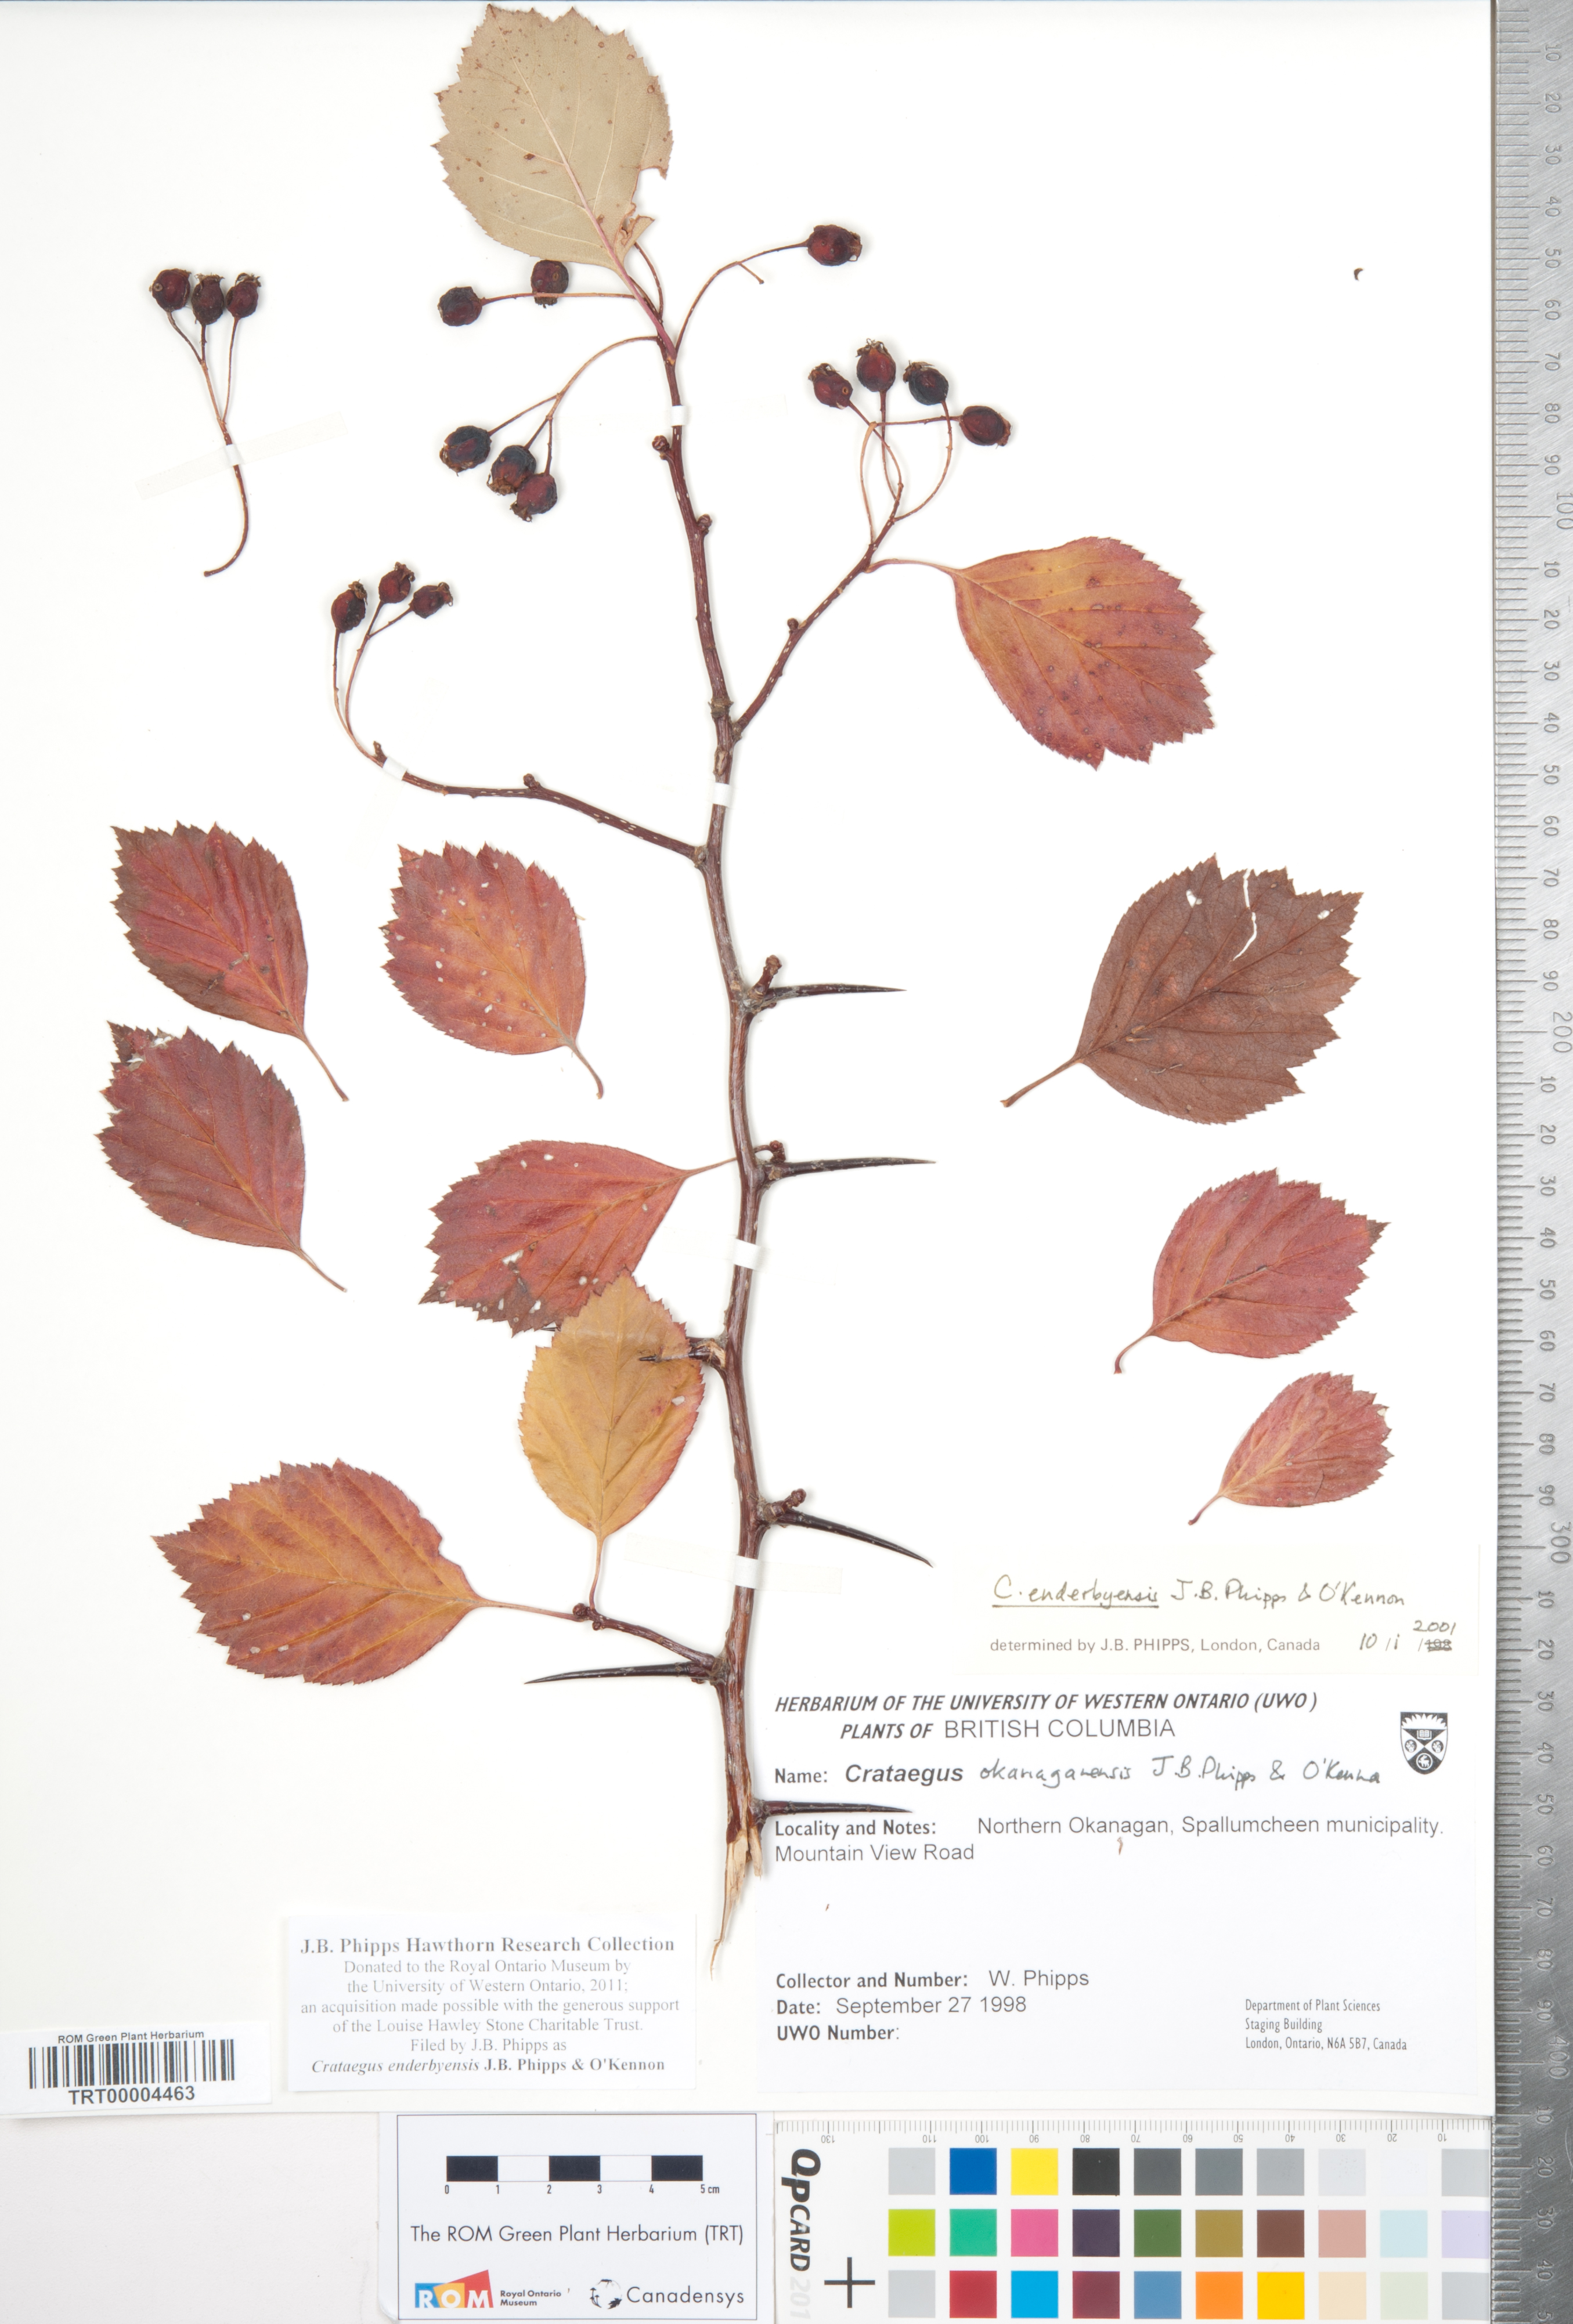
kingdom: Plantae
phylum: Tracheophyta
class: Magnoliopsida
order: Rosales
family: Rosaceae
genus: Crataegus
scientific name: Crataegus enderbyensis
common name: Enderby hawthorn
